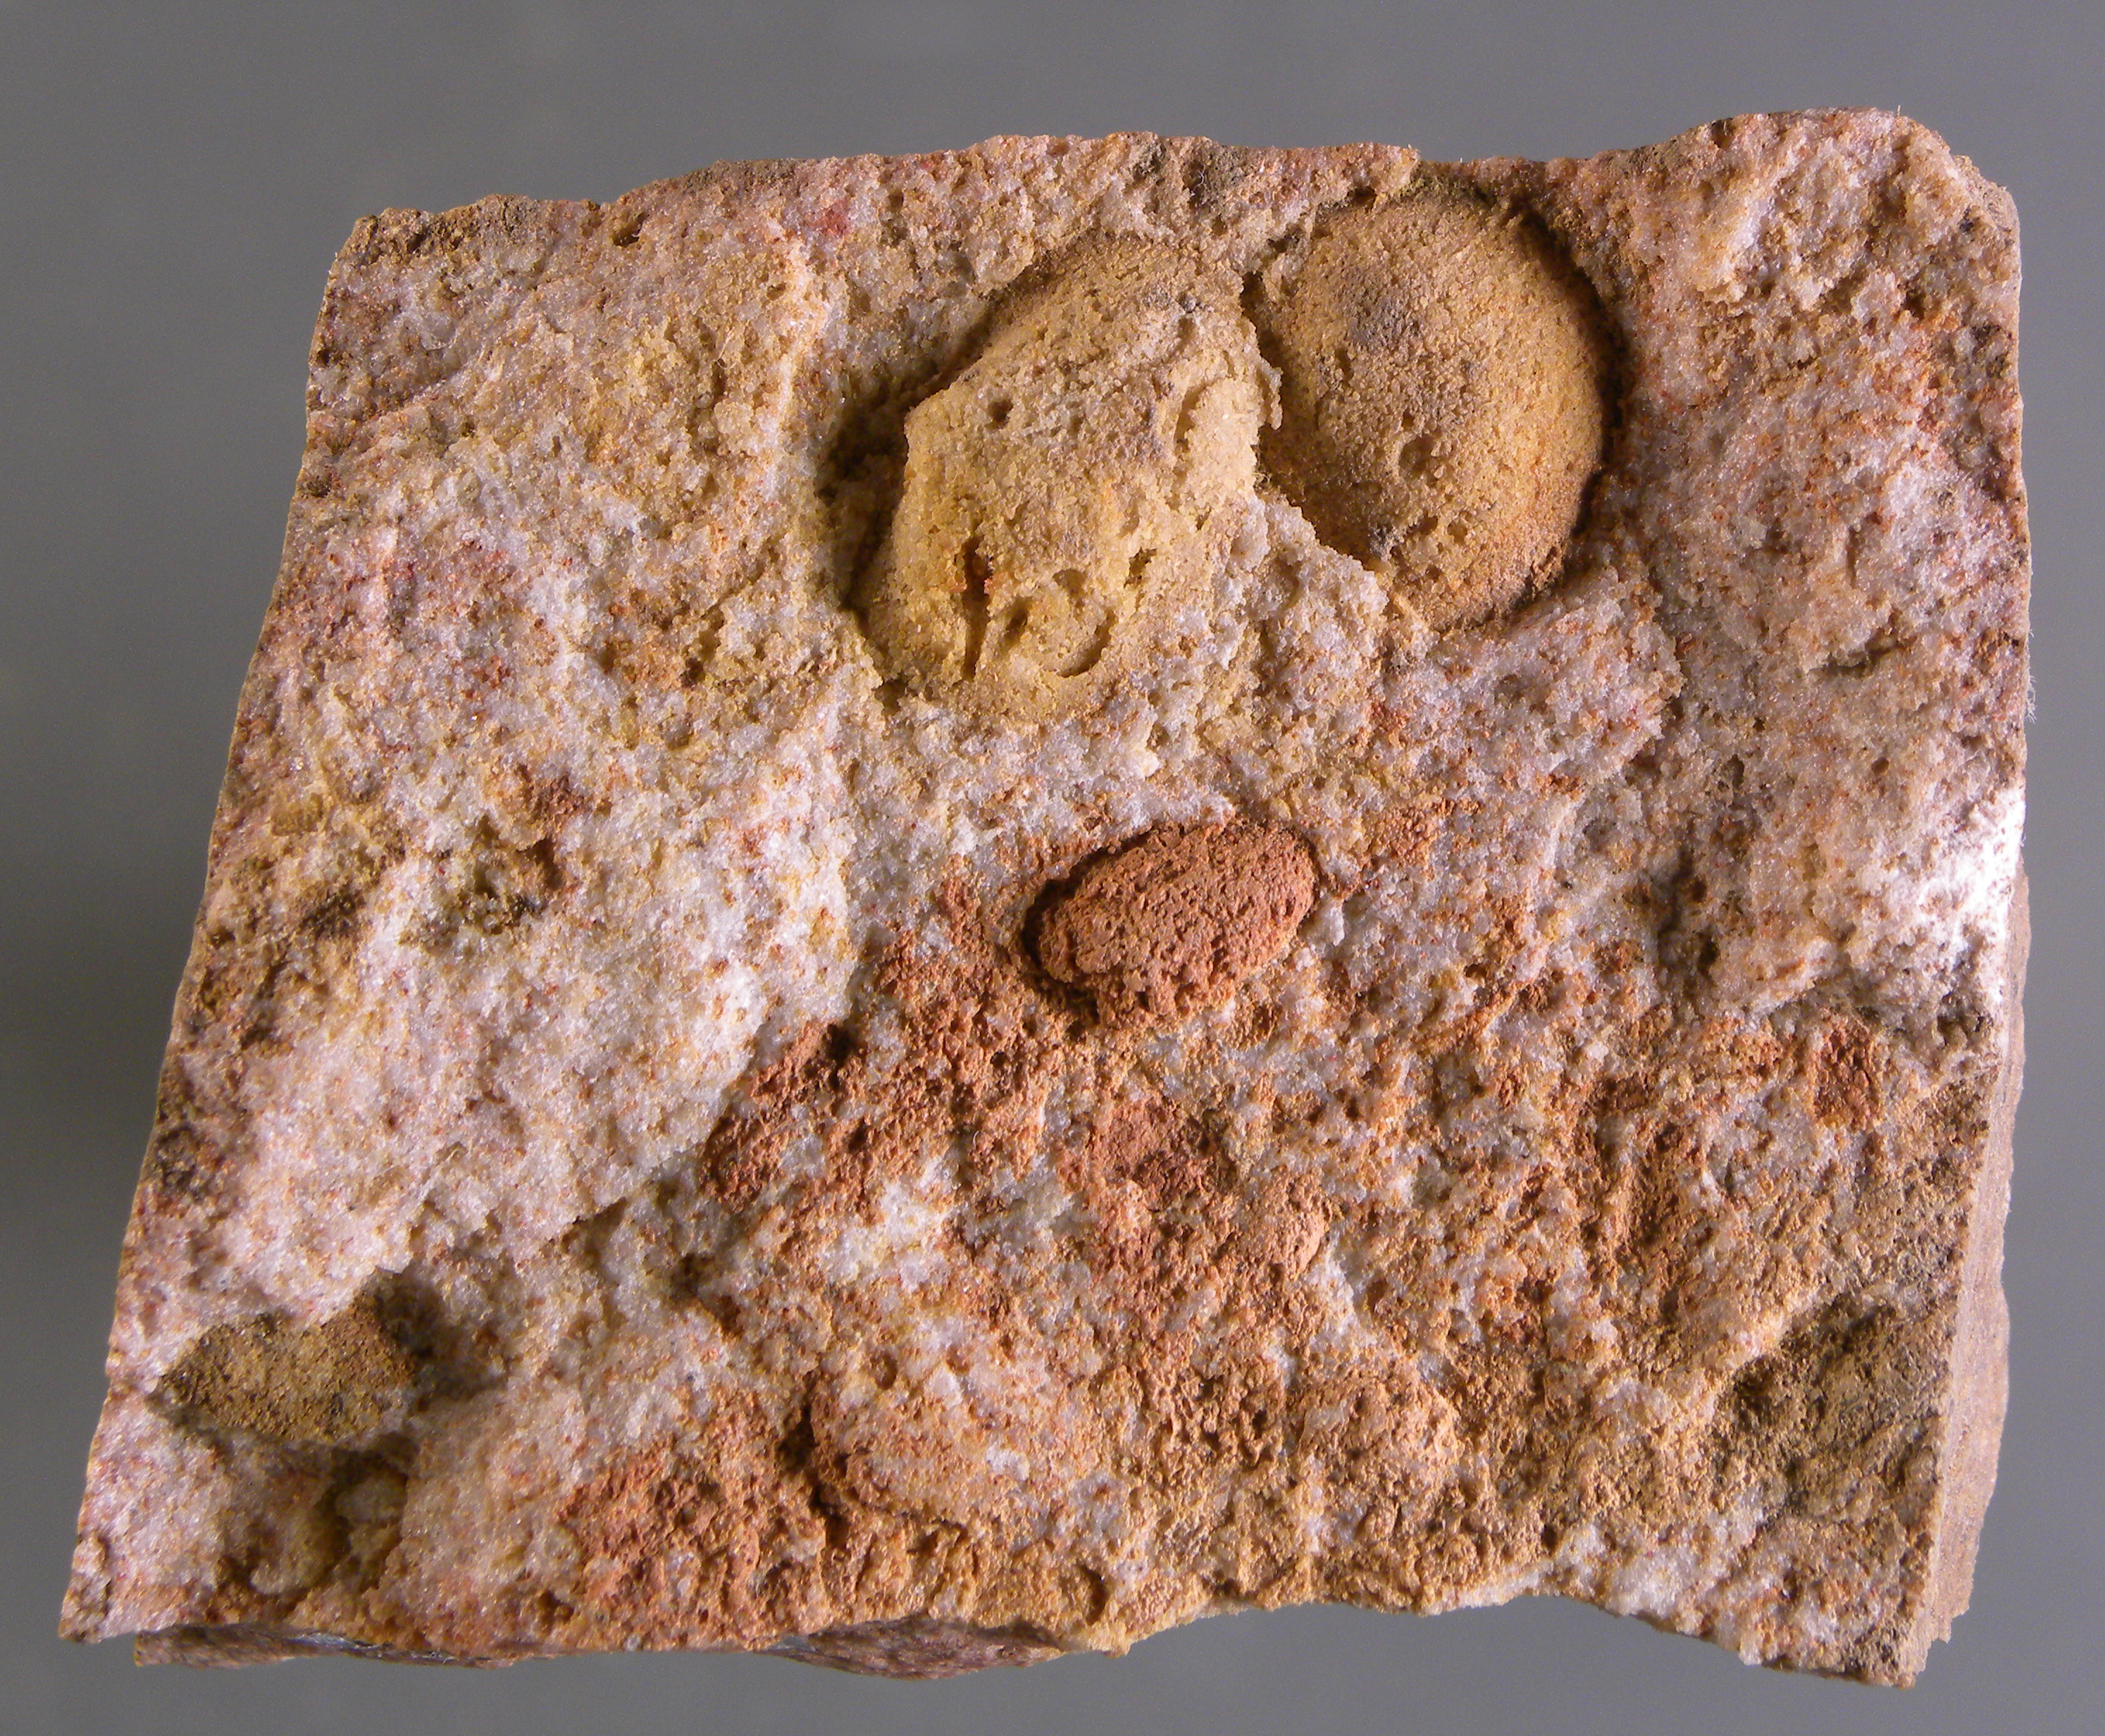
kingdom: Animalia
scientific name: Animalia
